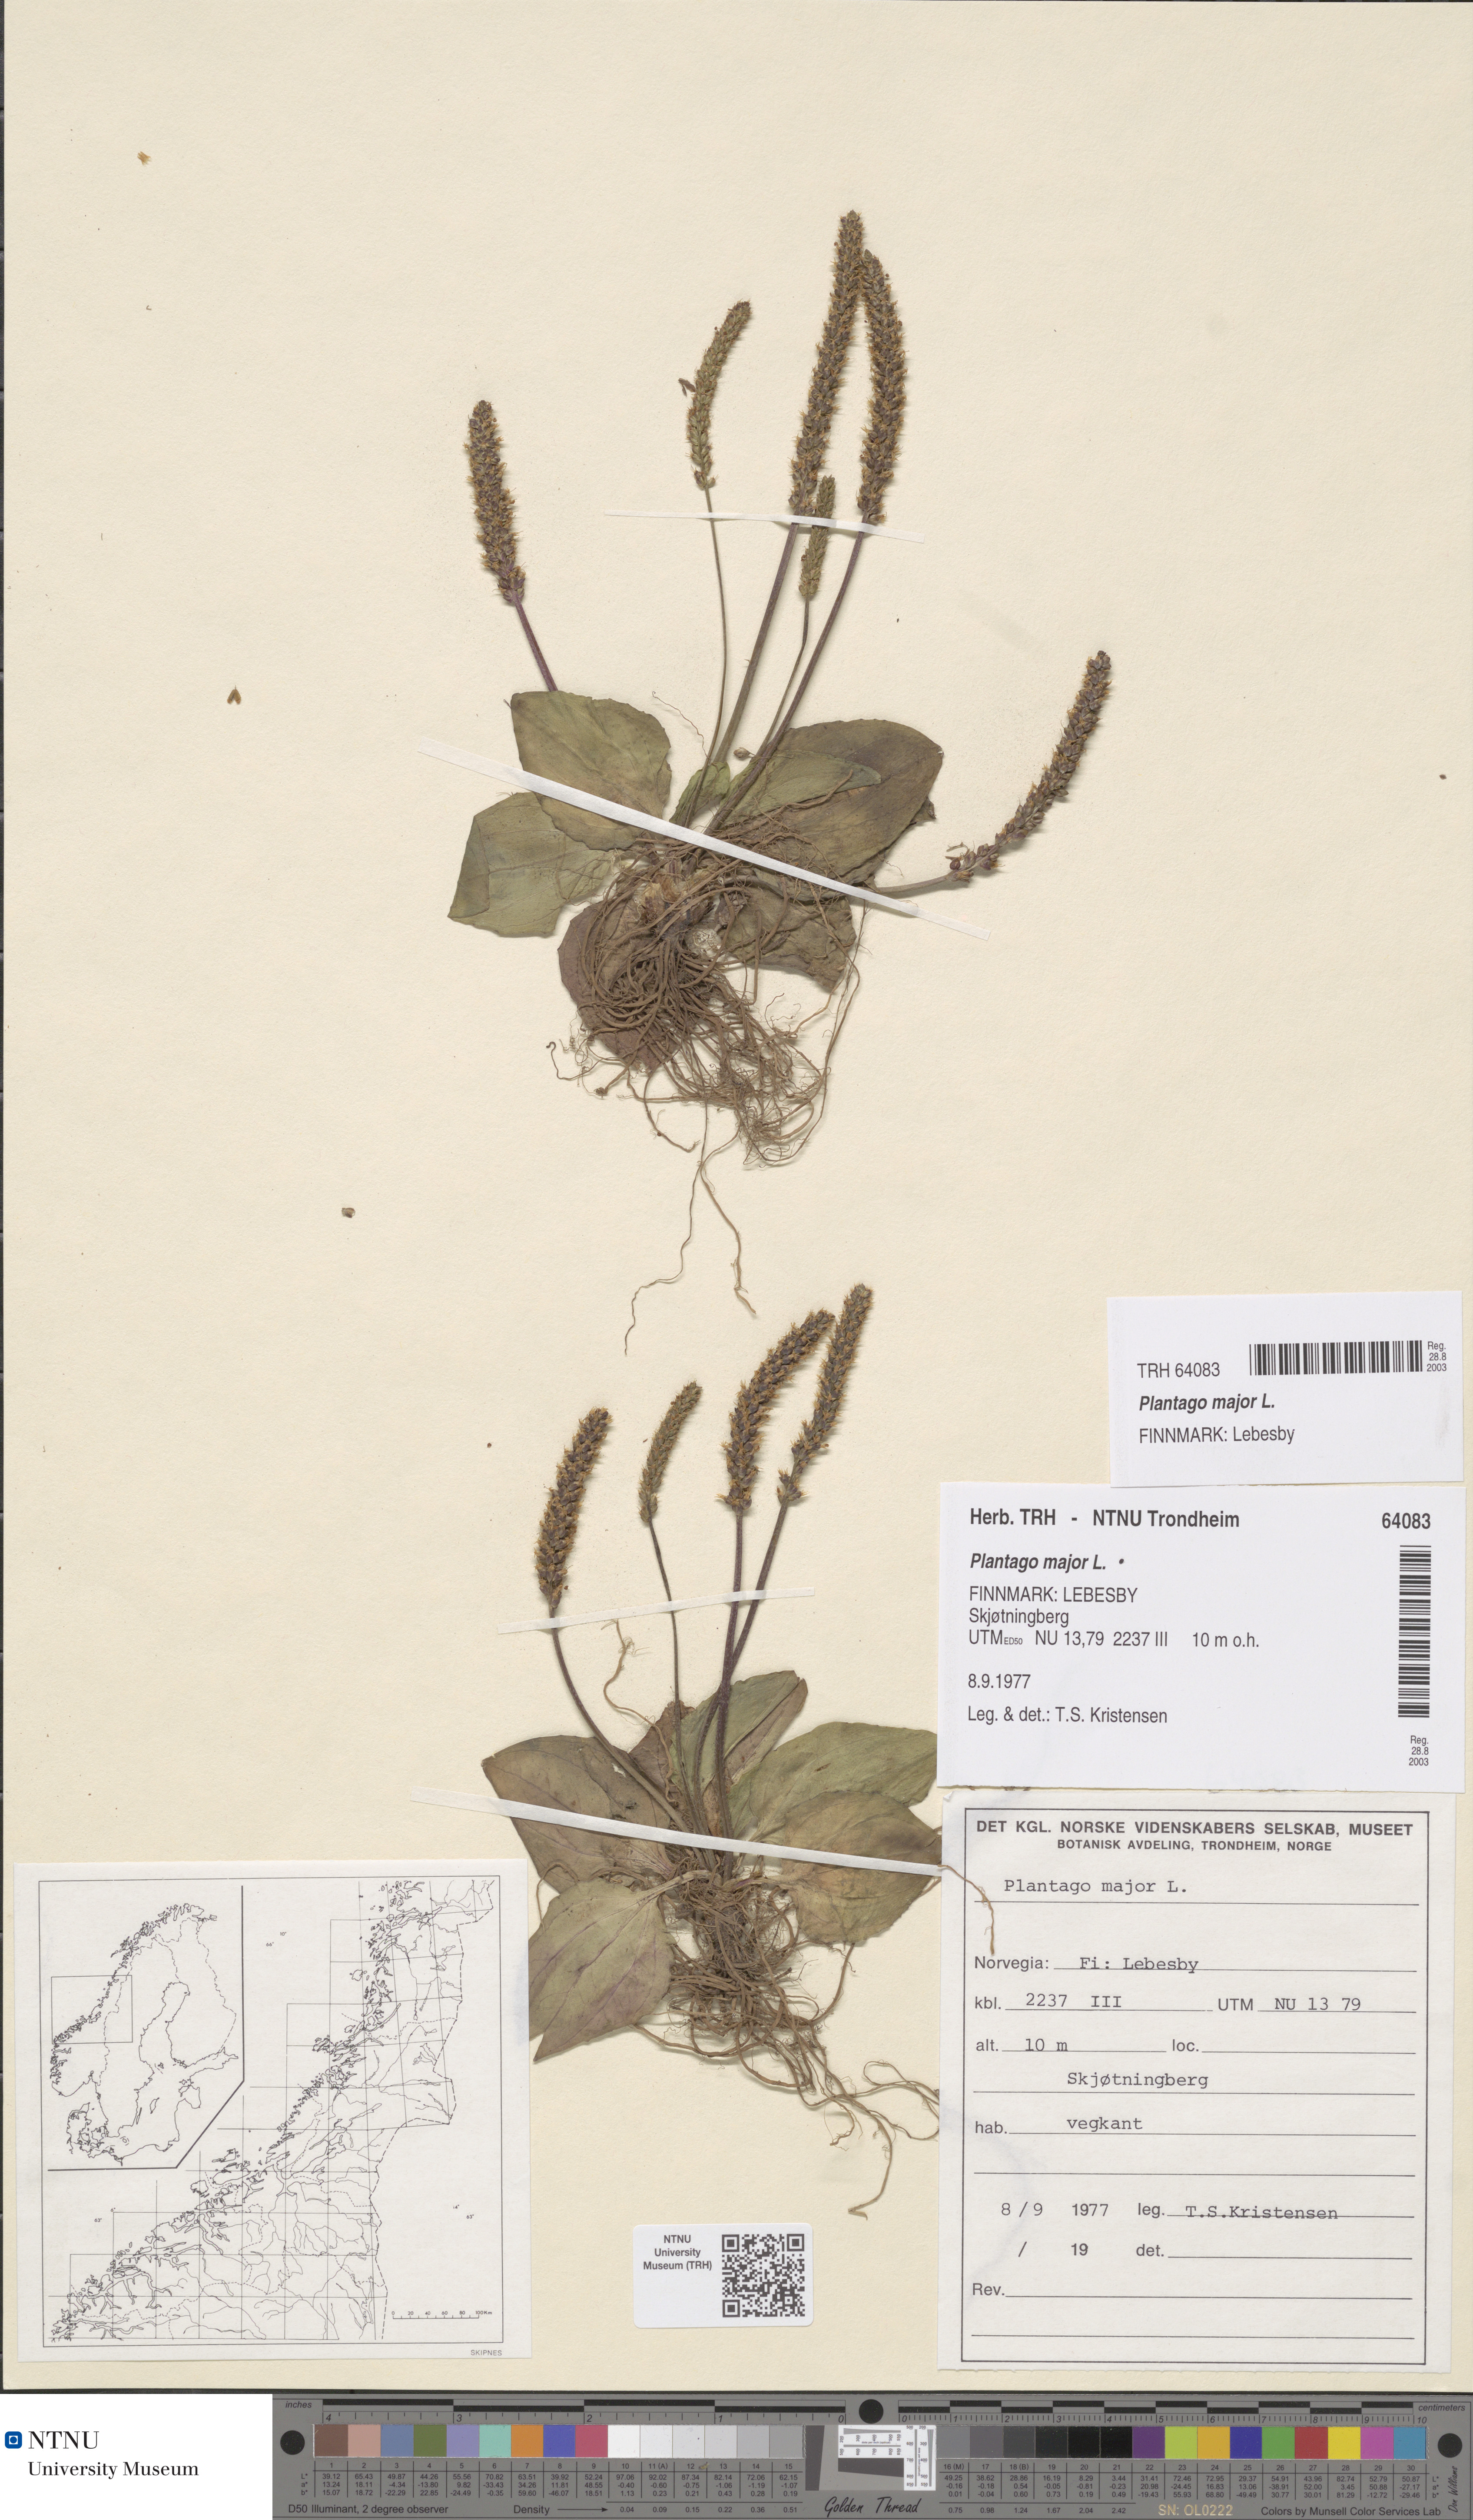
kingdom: Plantae
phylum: Tracheophyta
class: Magnoliopsida
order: Lamiales
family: Plantaginaceae
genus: Plantago
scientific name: Plantago major
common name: Common plantain
